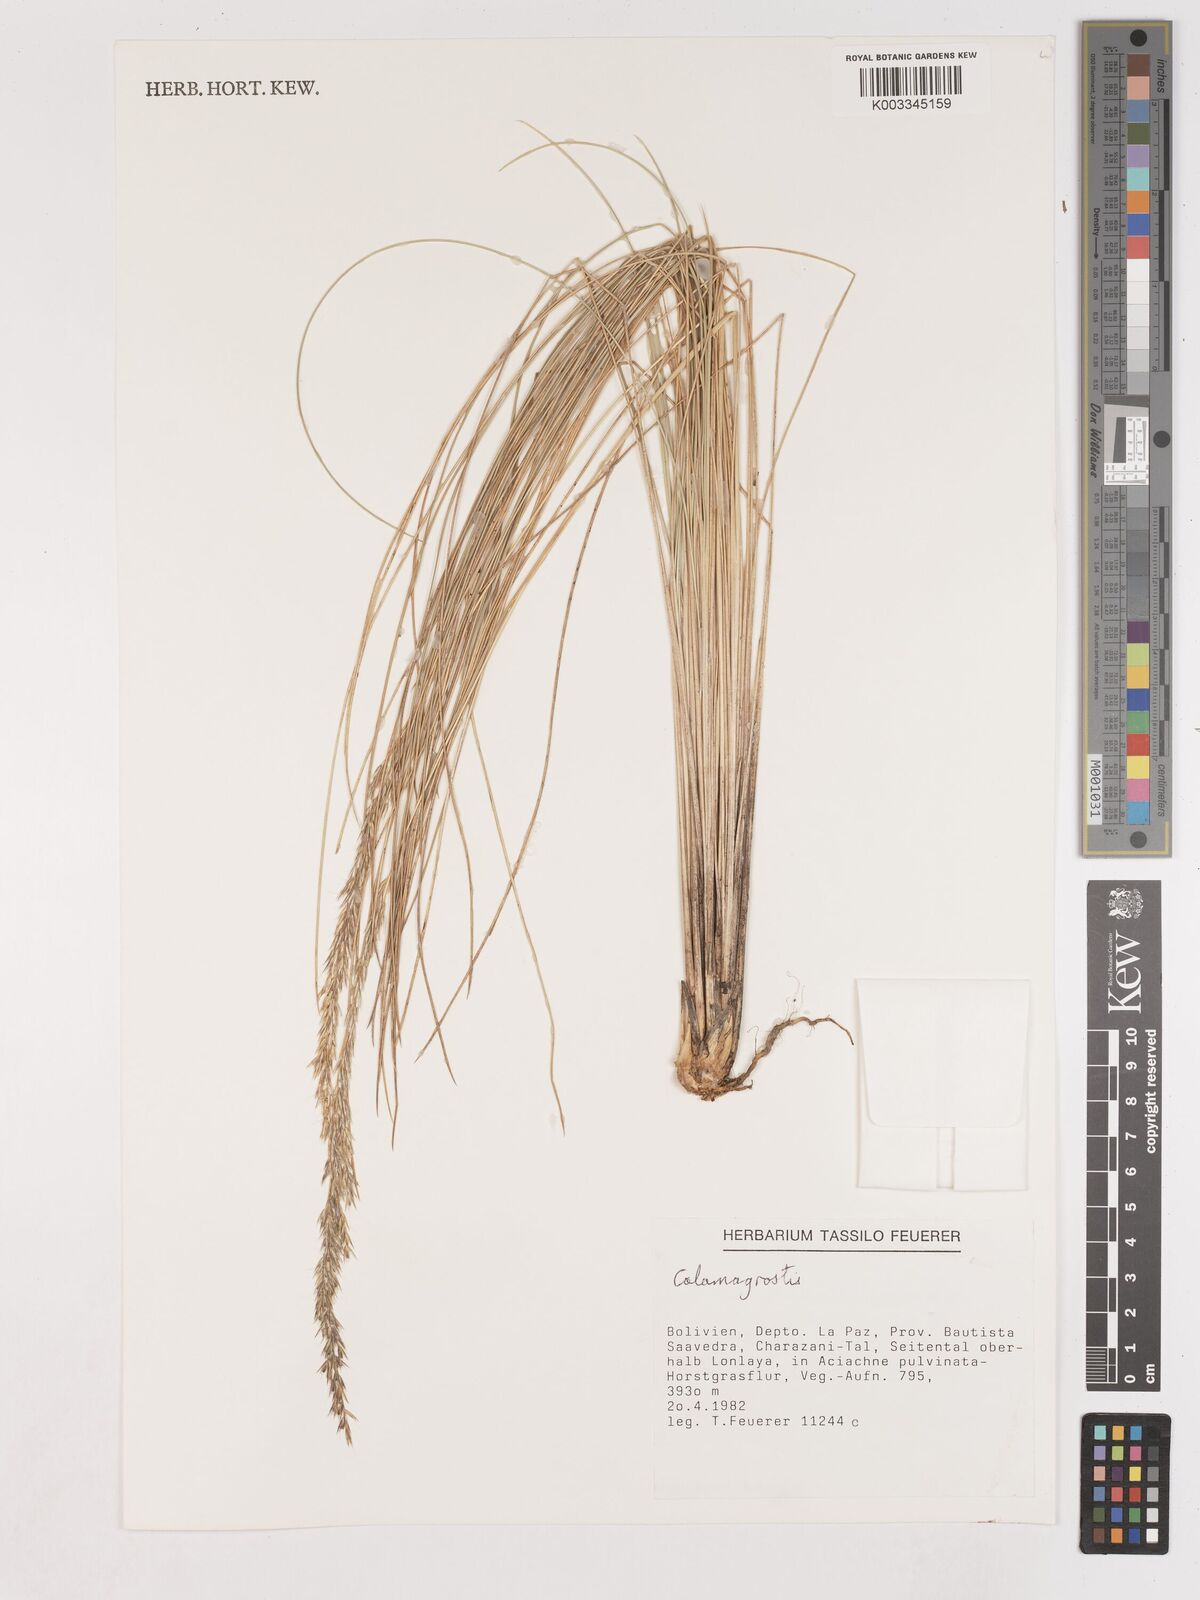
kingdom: Plantae
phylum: Tracheophyta
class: Liliopsida
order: Poales
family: Poaceae
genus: Calamagrostis
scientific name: Calamagrostis
